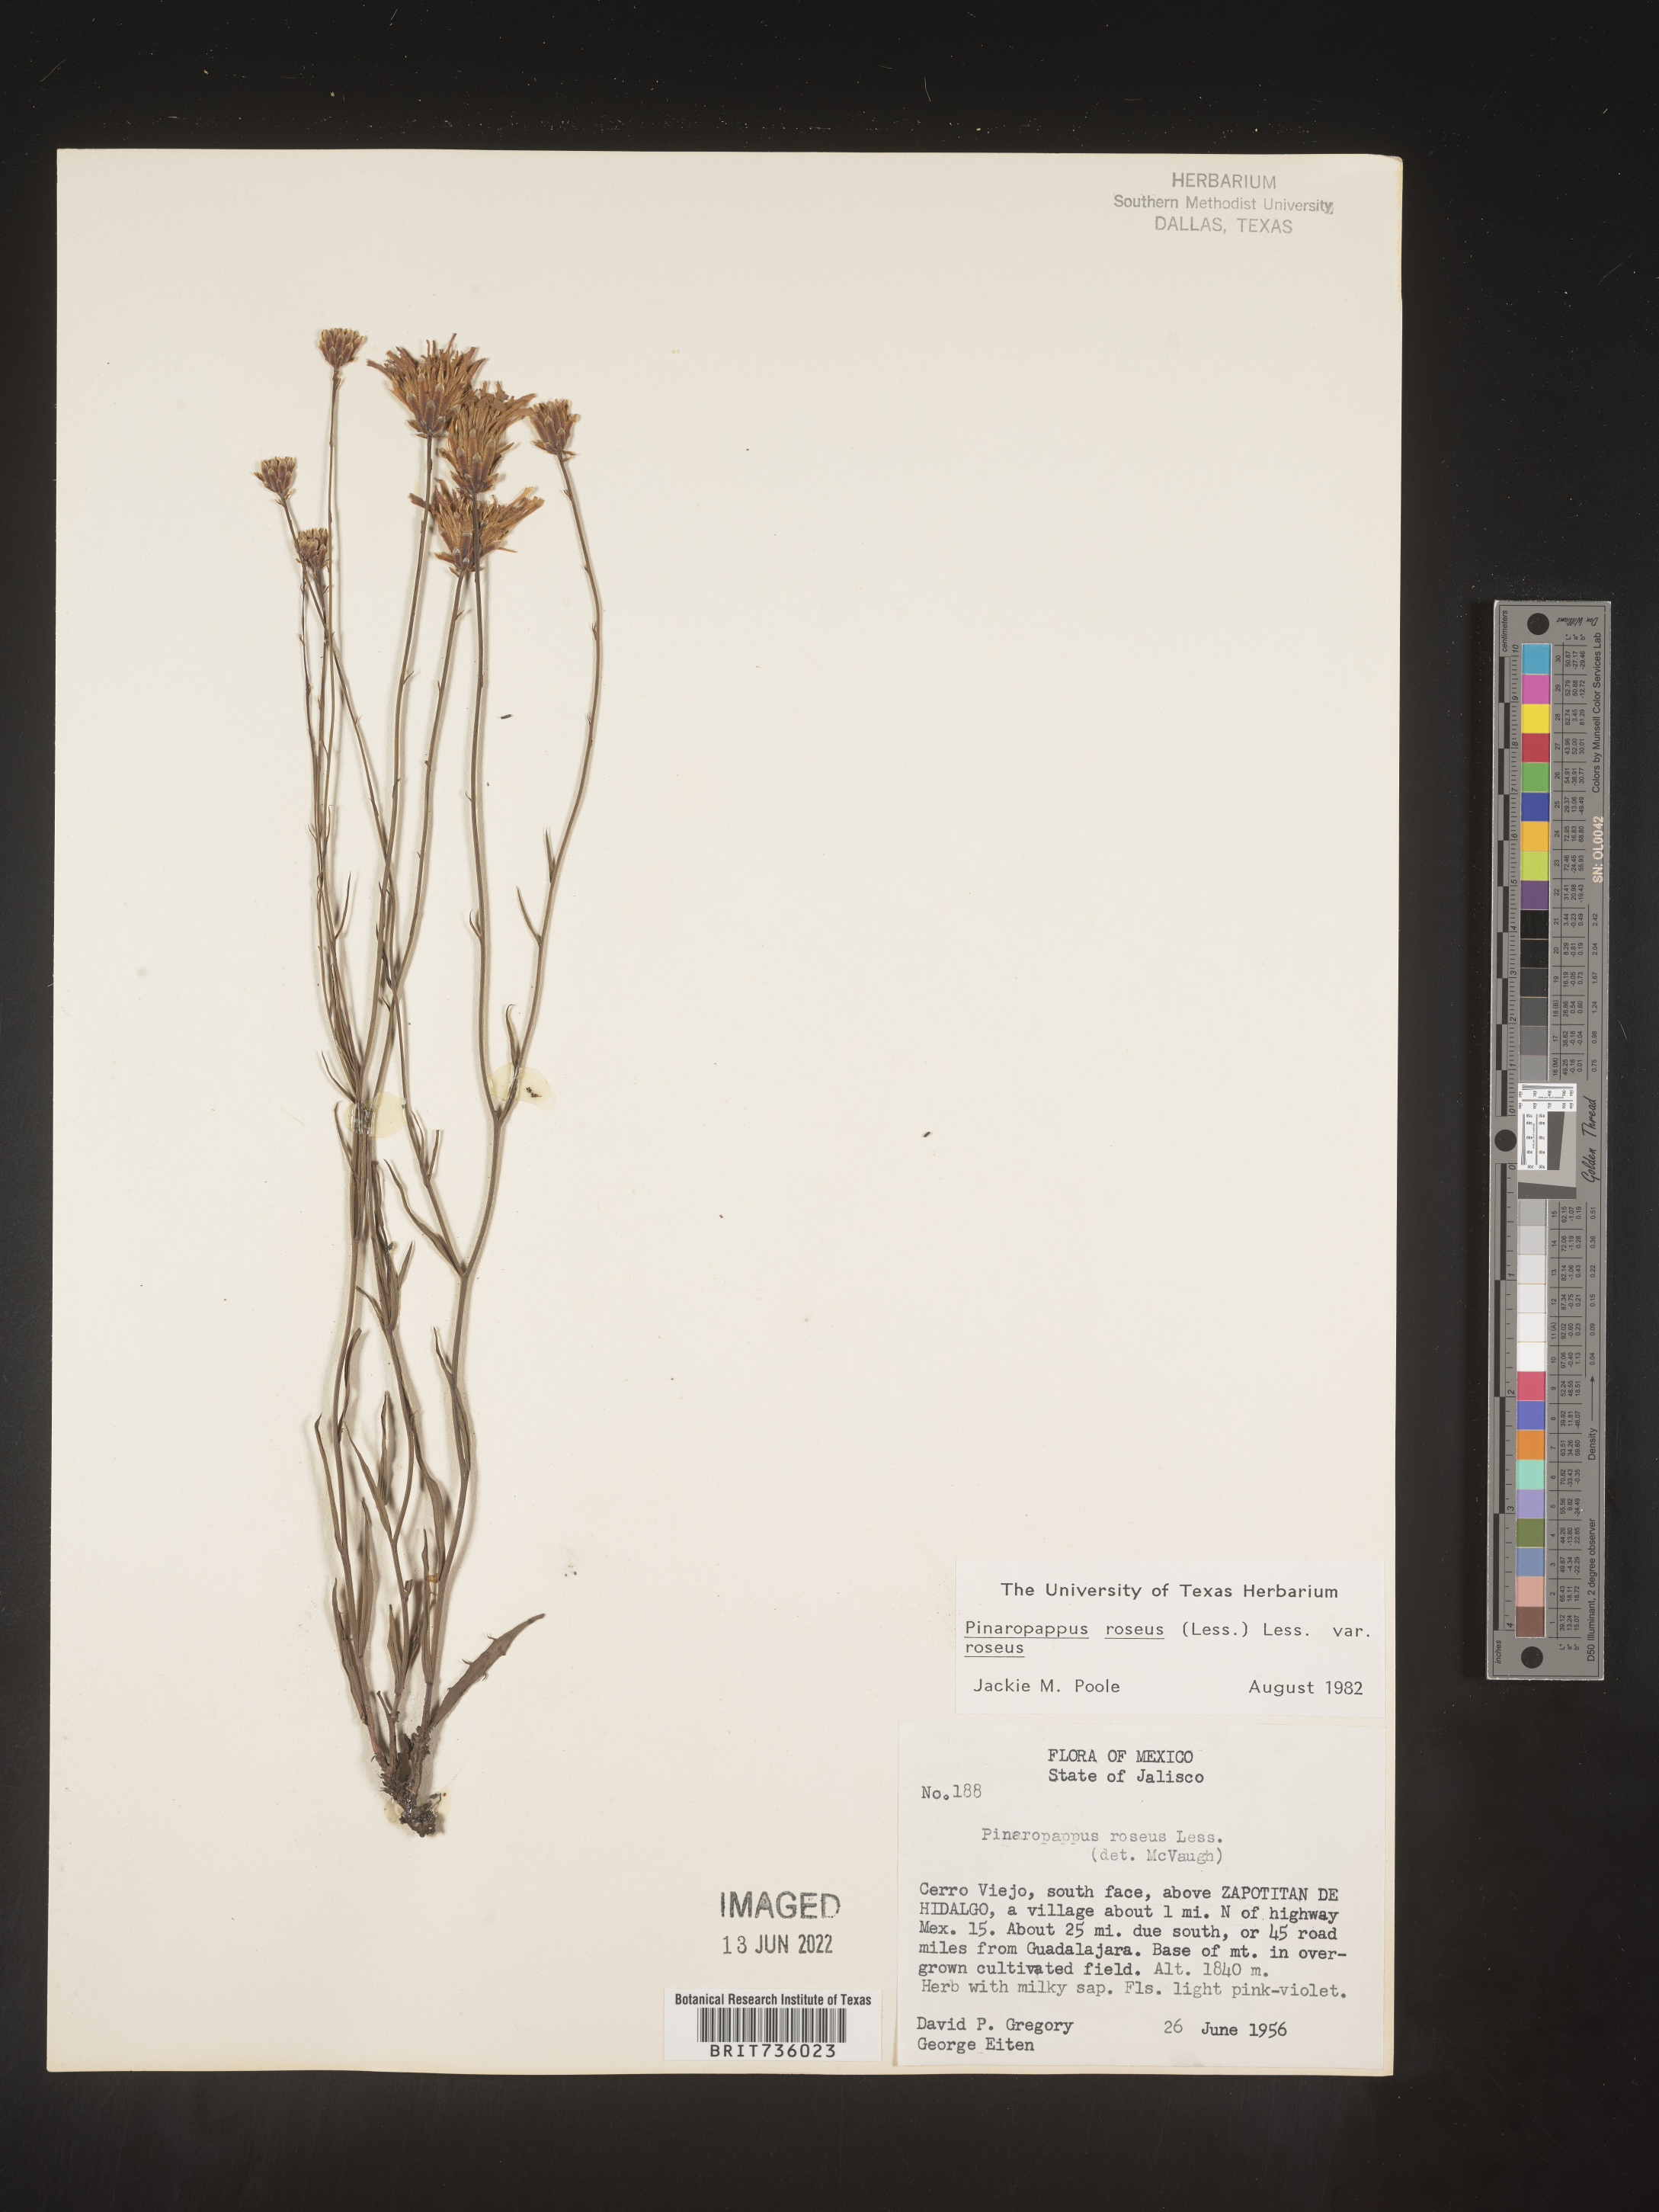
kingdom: Plantae
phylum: Tracheophyta
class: Magnoliopsida
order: Asterales
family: Asteraceae
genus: Pinaropappus
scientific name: Pinaropappus
